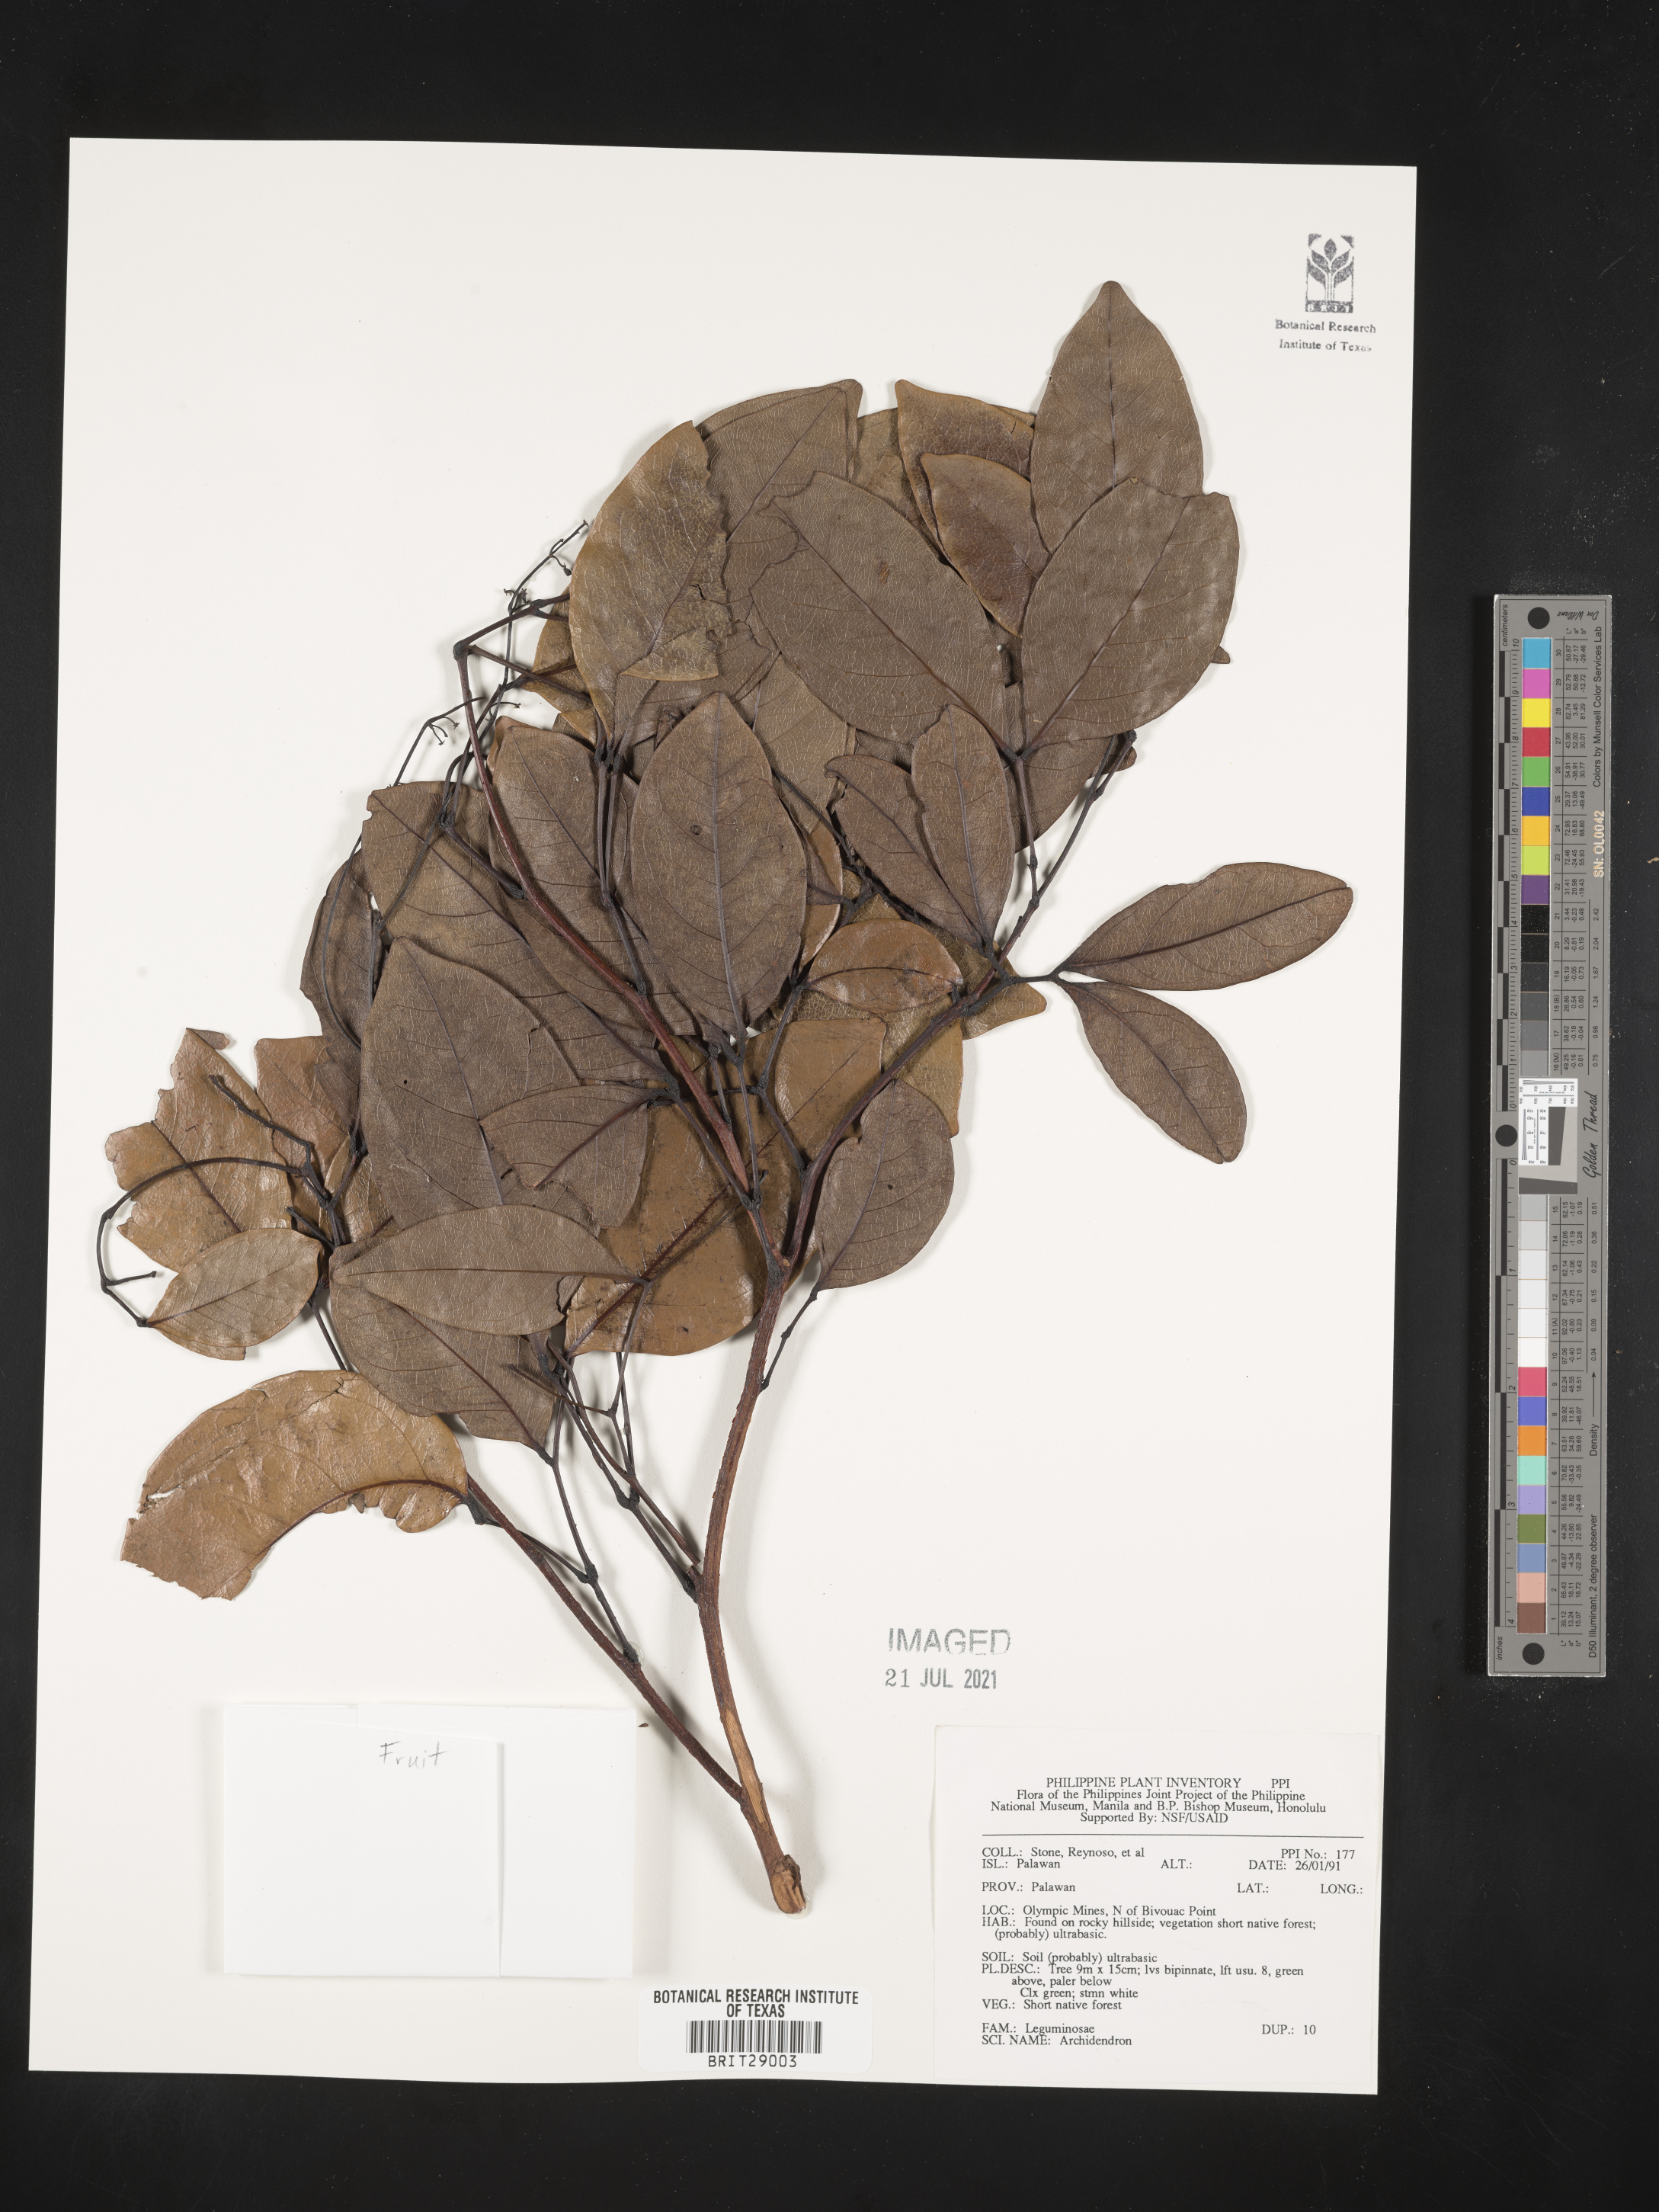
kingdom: Plantae
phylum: Tracheophyta
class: Magnoliopsida
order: Fabales
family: Fabaceae
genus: Archidendron
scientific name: Archidendron
